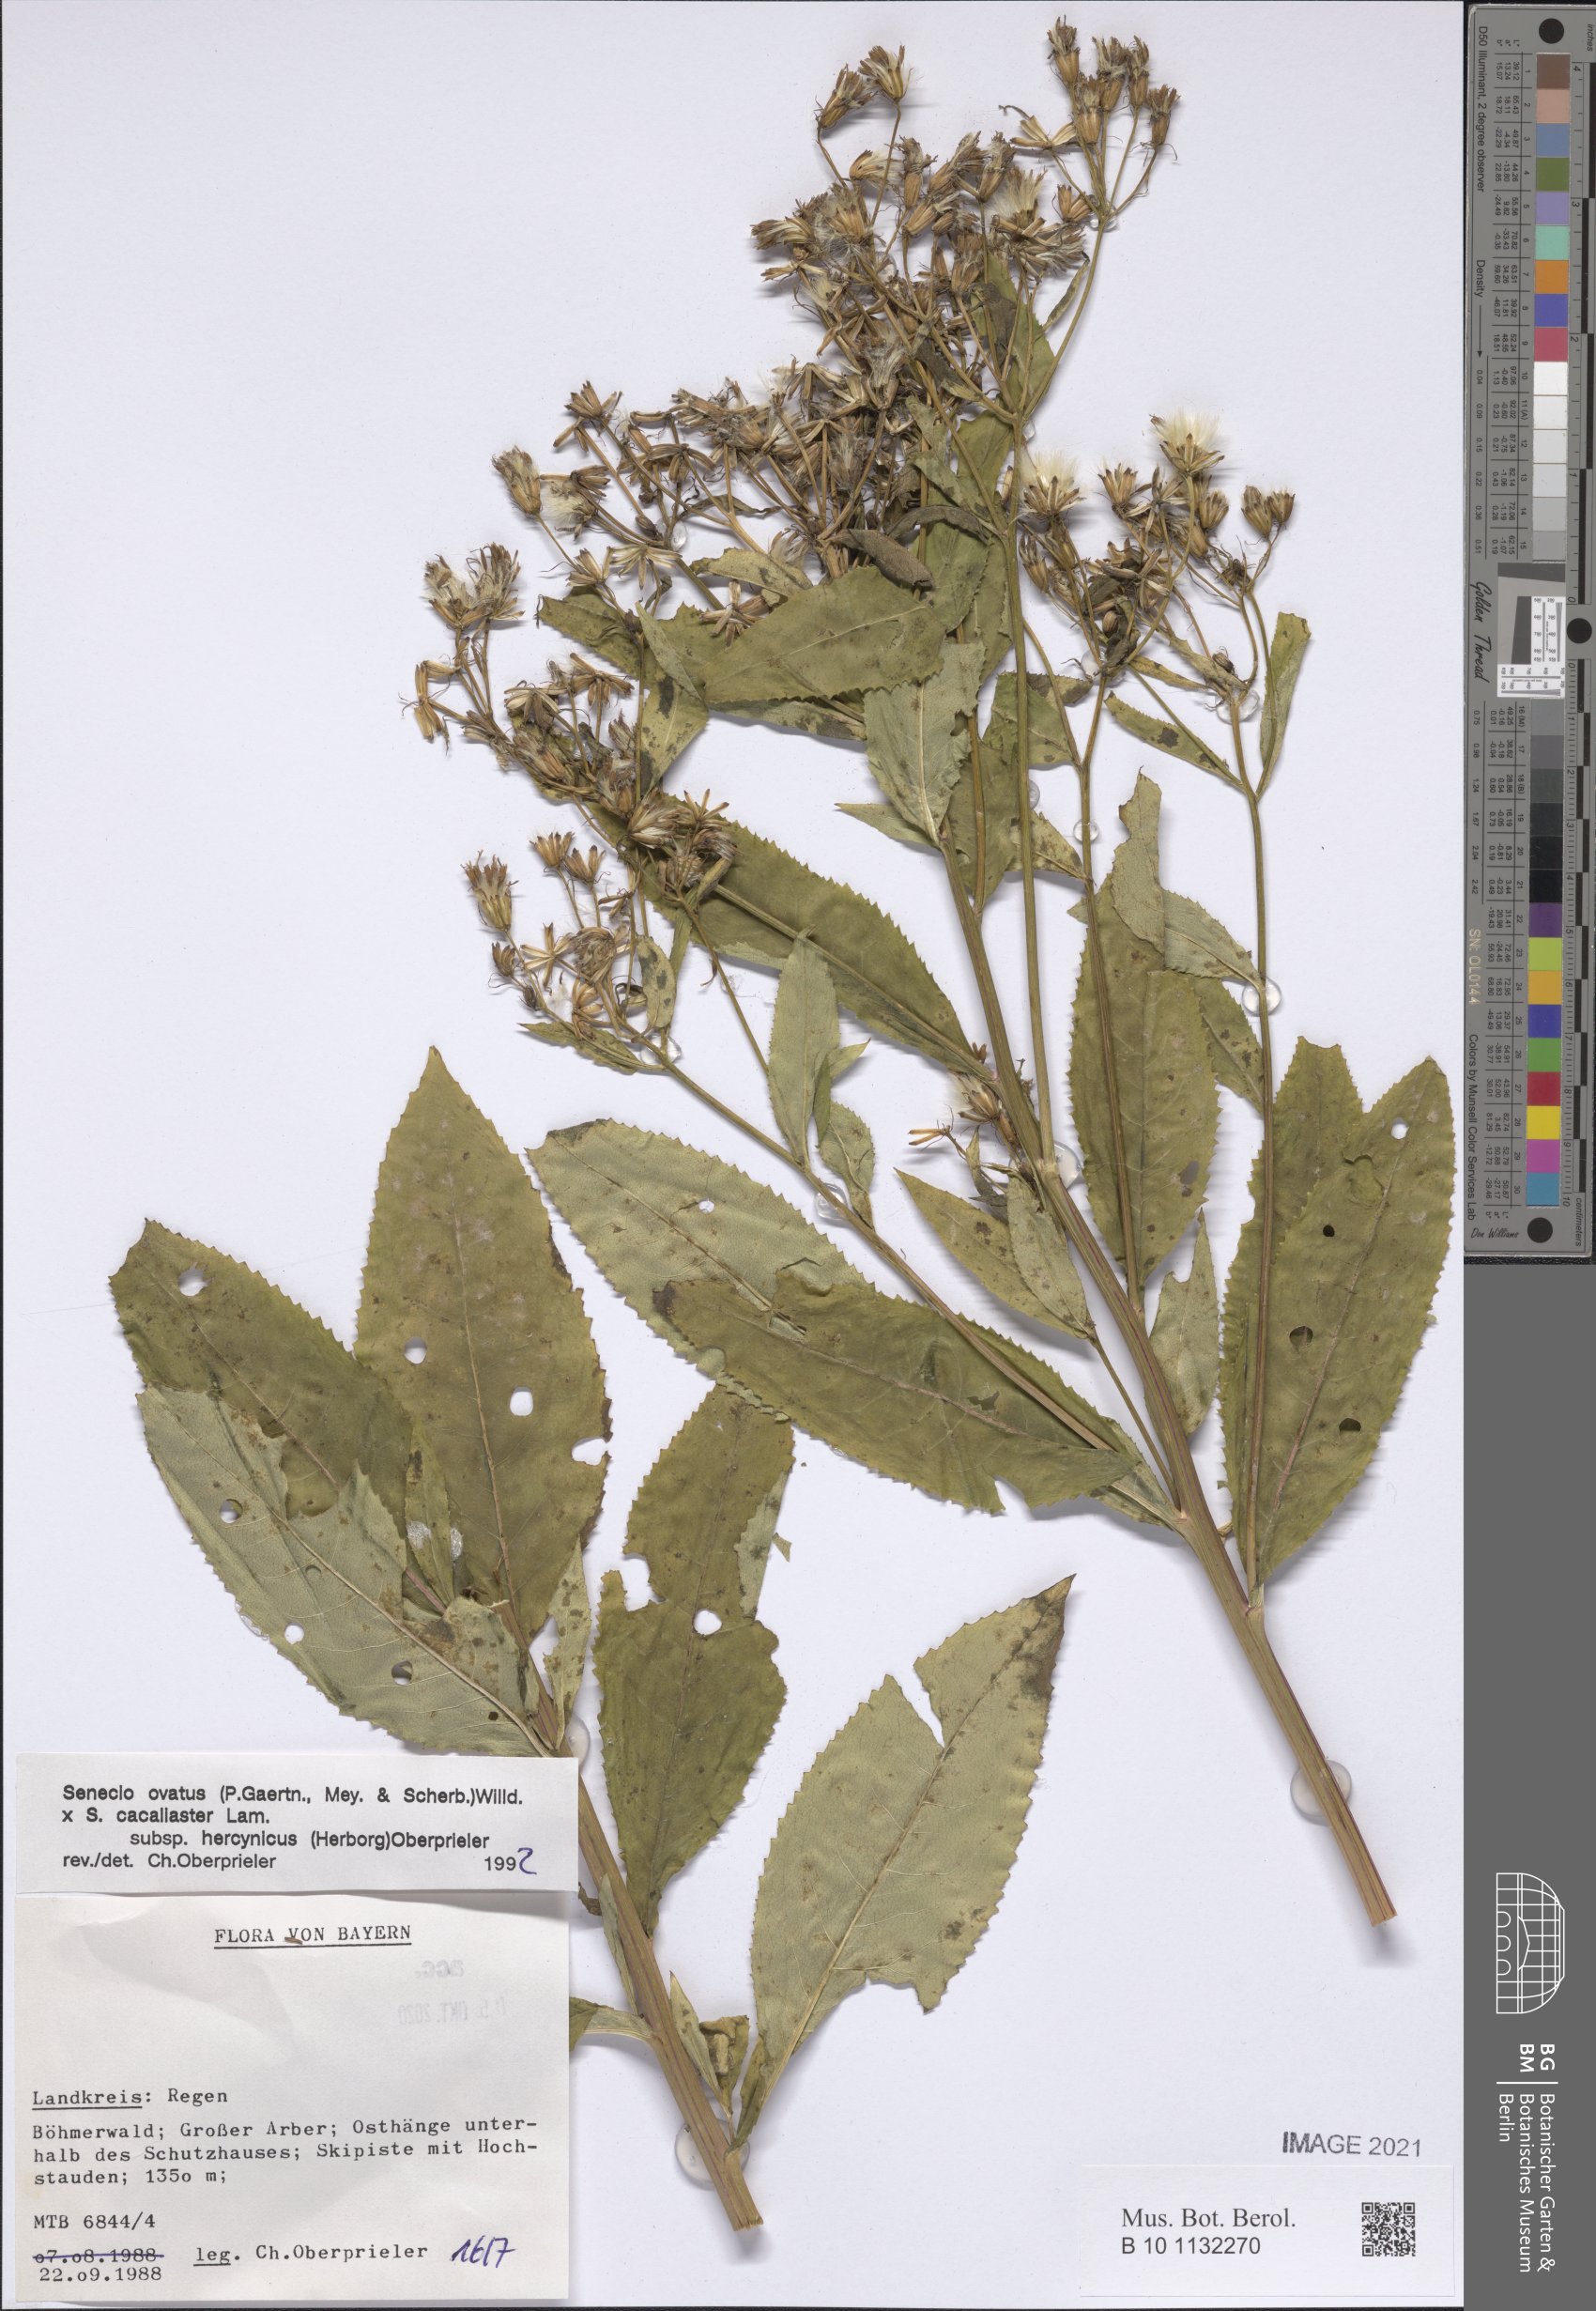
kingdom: Plantae
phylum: Tracheophyta
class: Magnoliopsida
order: Asterales
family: Asteraceae
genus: Senecio
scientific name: Senecio ovatus
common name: Wood ragwort
